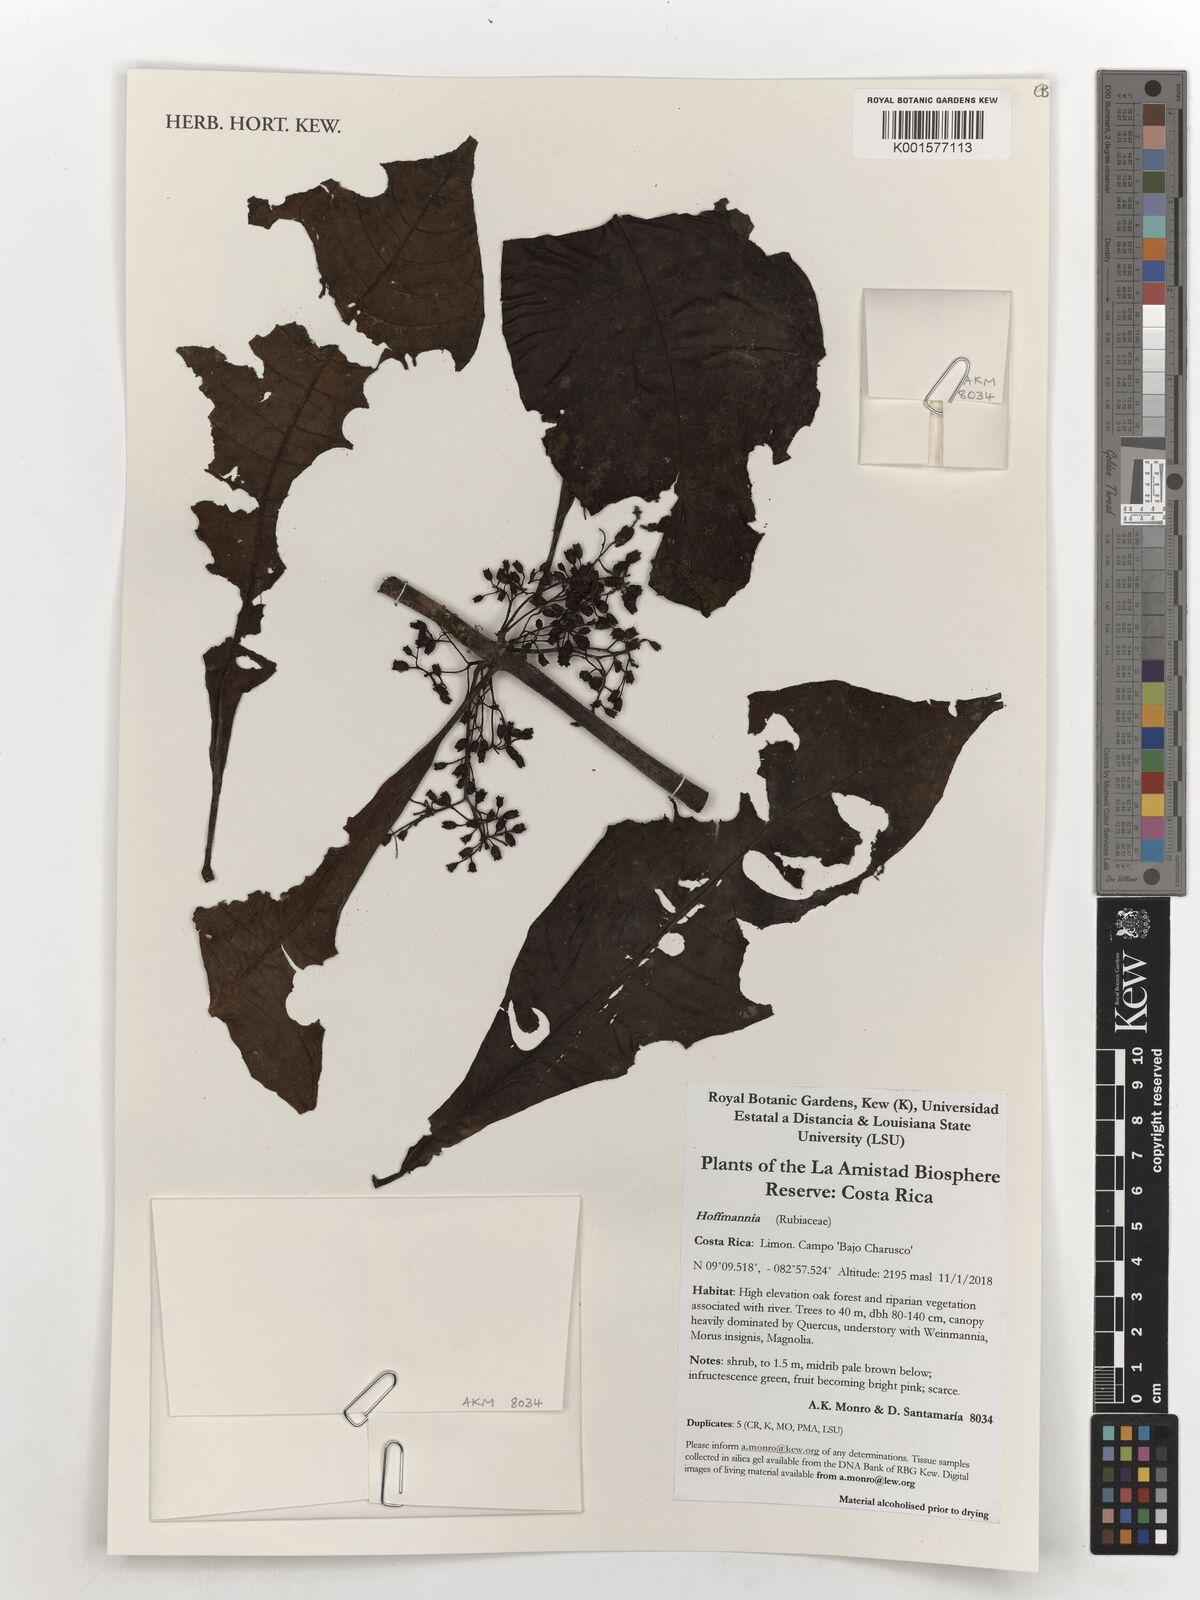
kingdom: Plantae
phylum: Tracheophyta
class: Magnoliopsida
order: Gentianales
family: Rubiaceae
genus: Hoffmannia
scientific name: Hoffmannia
